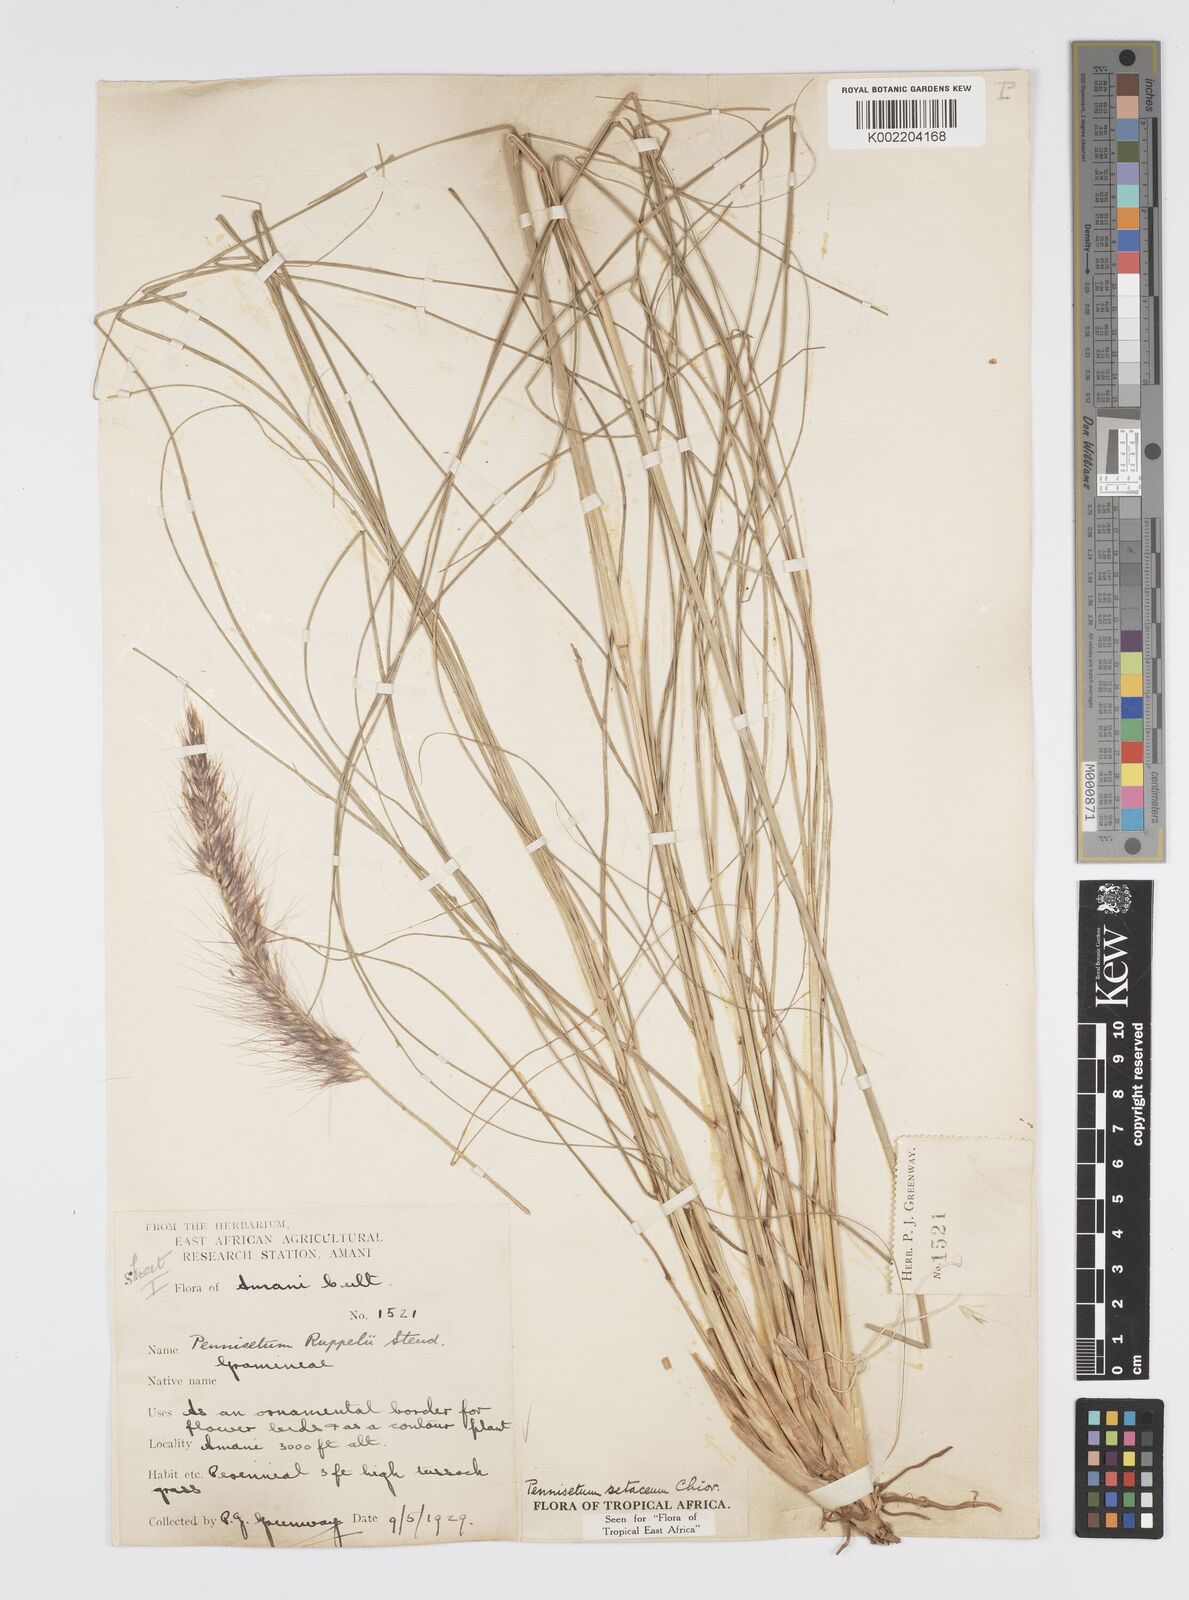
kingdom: Plantae
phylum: Tracheophyta
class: Liliopsida
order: Poales
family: Poaceae
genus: Cenchrus
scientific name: Cenchrus setaceus
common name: Crimson fountaingrass
